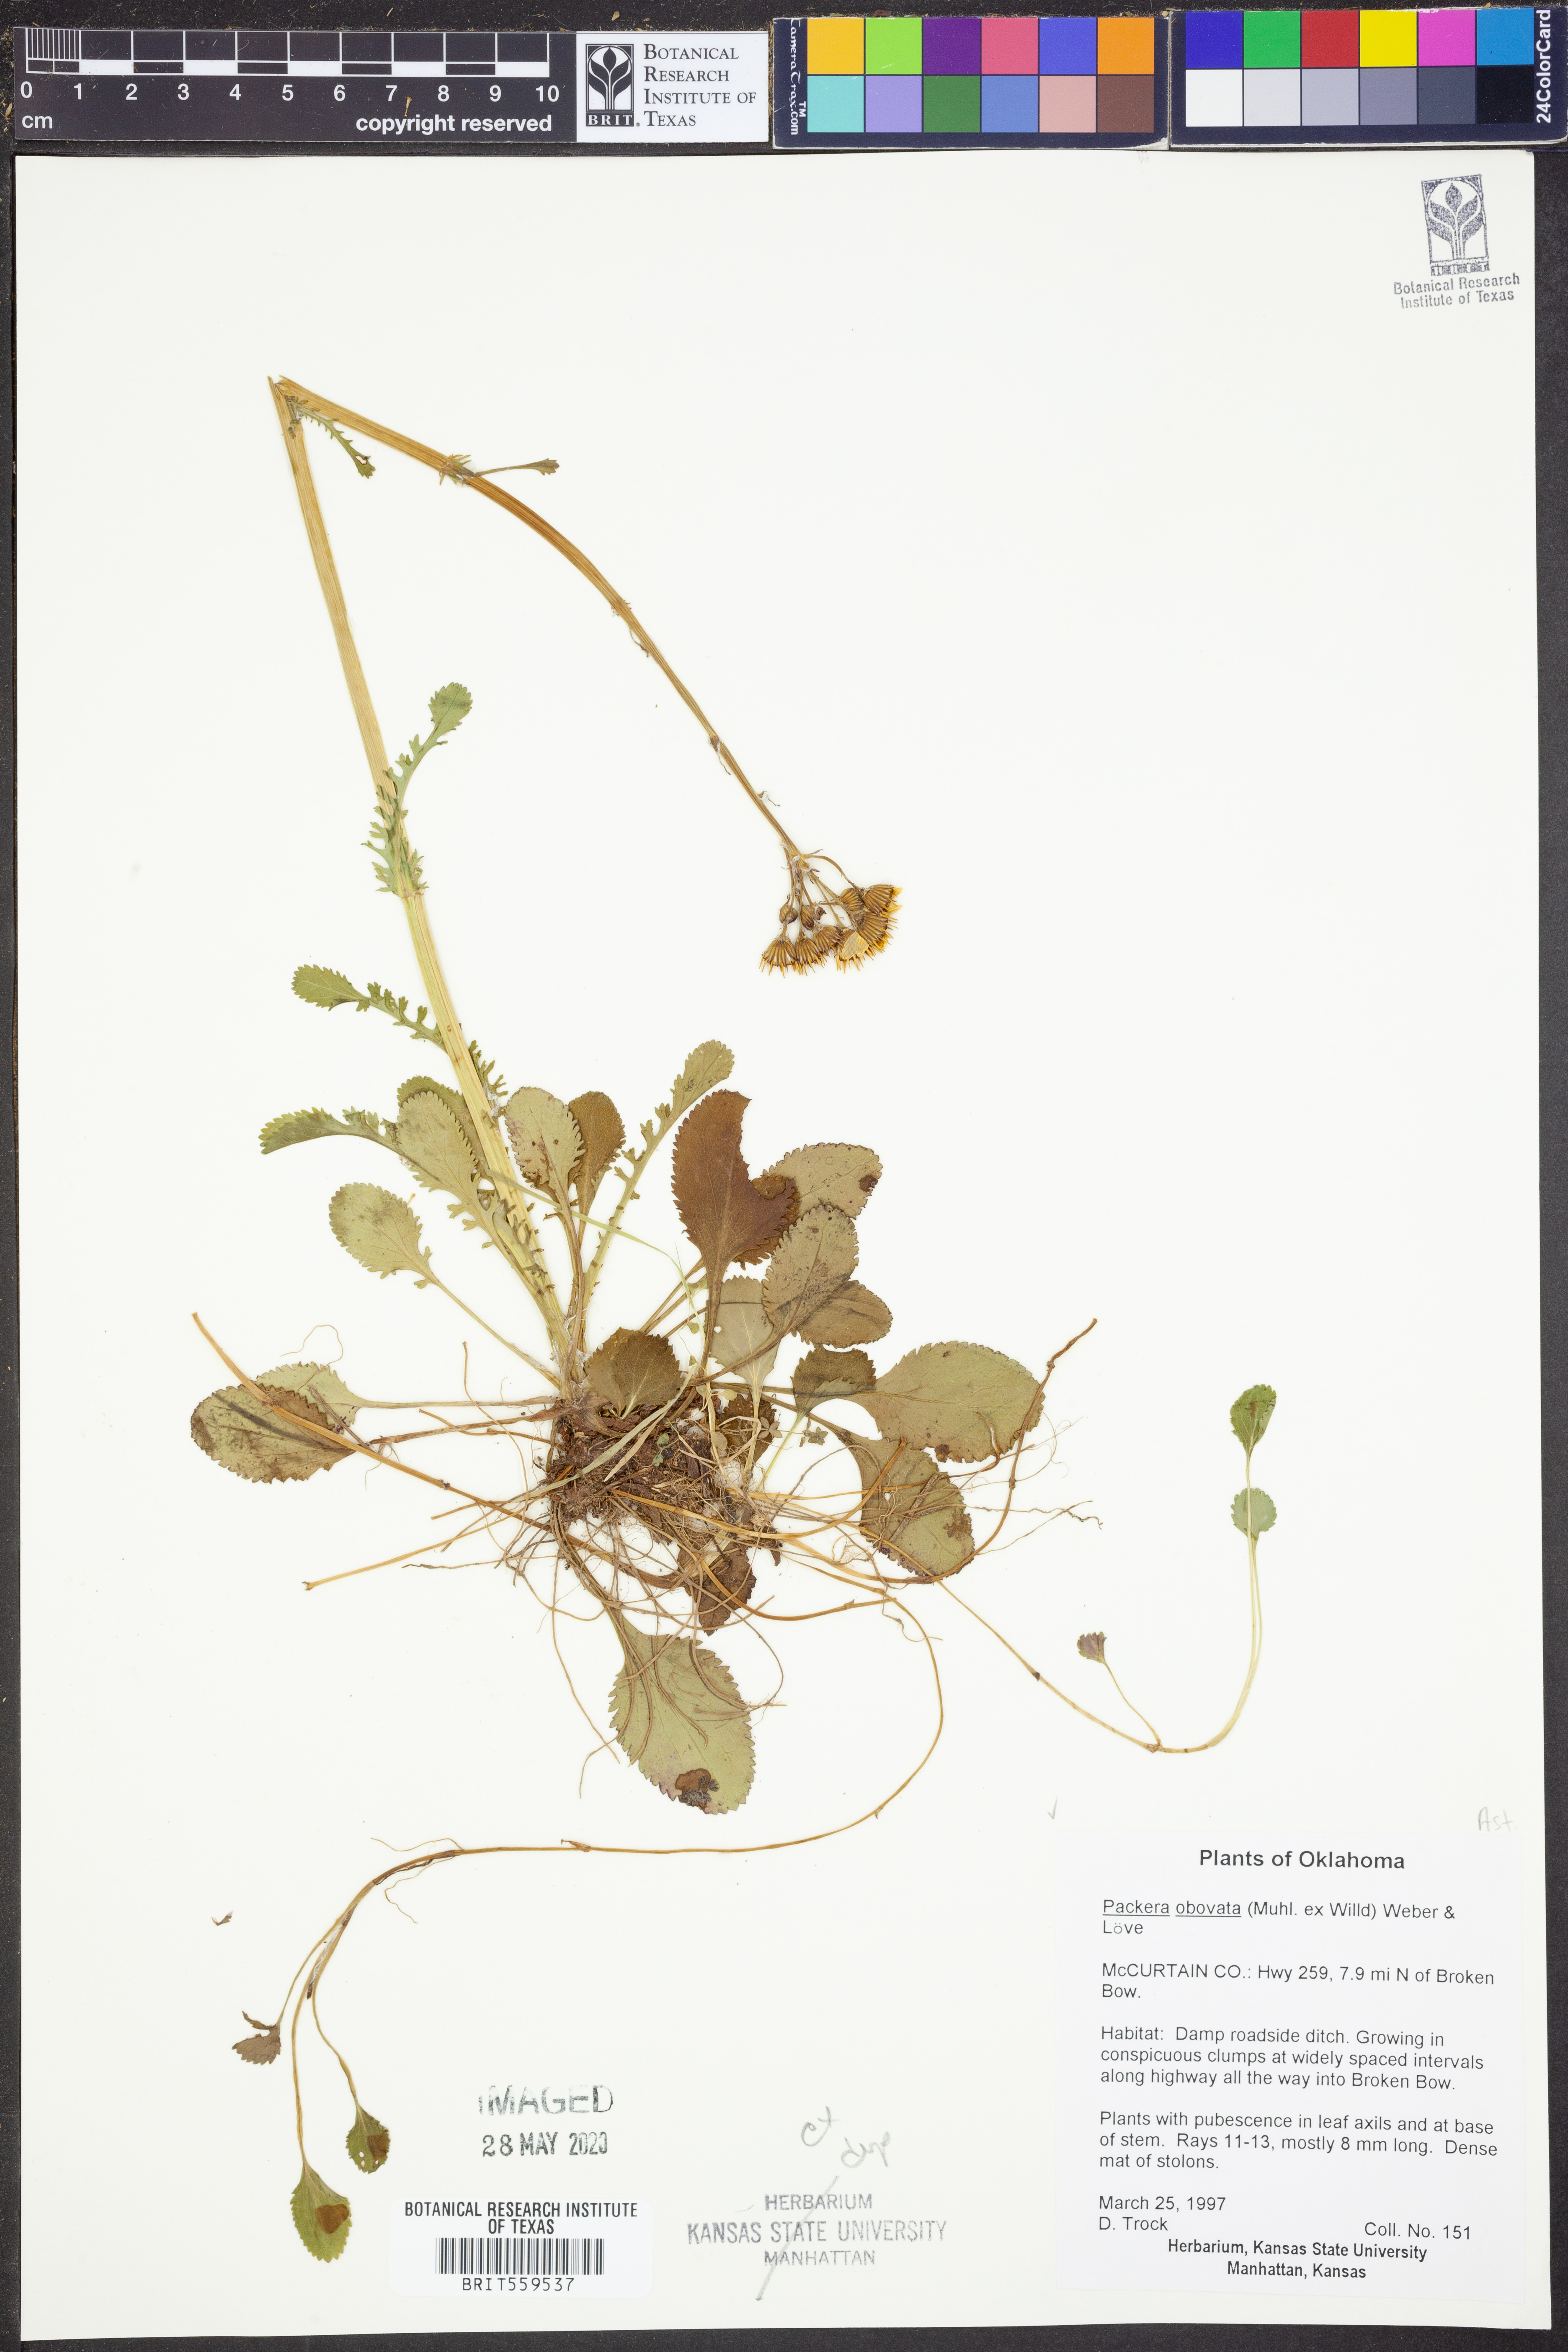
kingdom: Plantae
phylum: Tracheophyta
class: Magnoliopsida
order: Asterales
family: Asteraceae
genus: Packera
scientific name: Packera obovata
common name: Round-leaf ragwort
